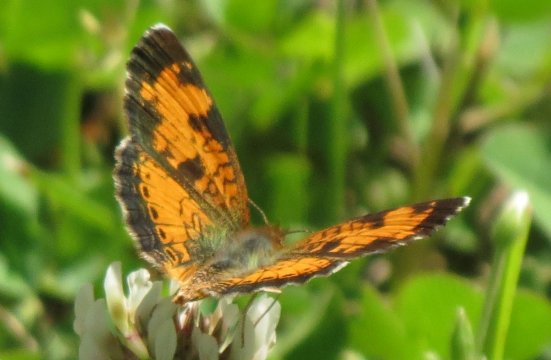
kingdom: Animalia
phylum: Arthropoda
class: Insecta
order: Lepidoptera
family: Nymphalidae
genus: Phyciodes
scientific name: Phyciodes tharos
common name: Northern Crescent
